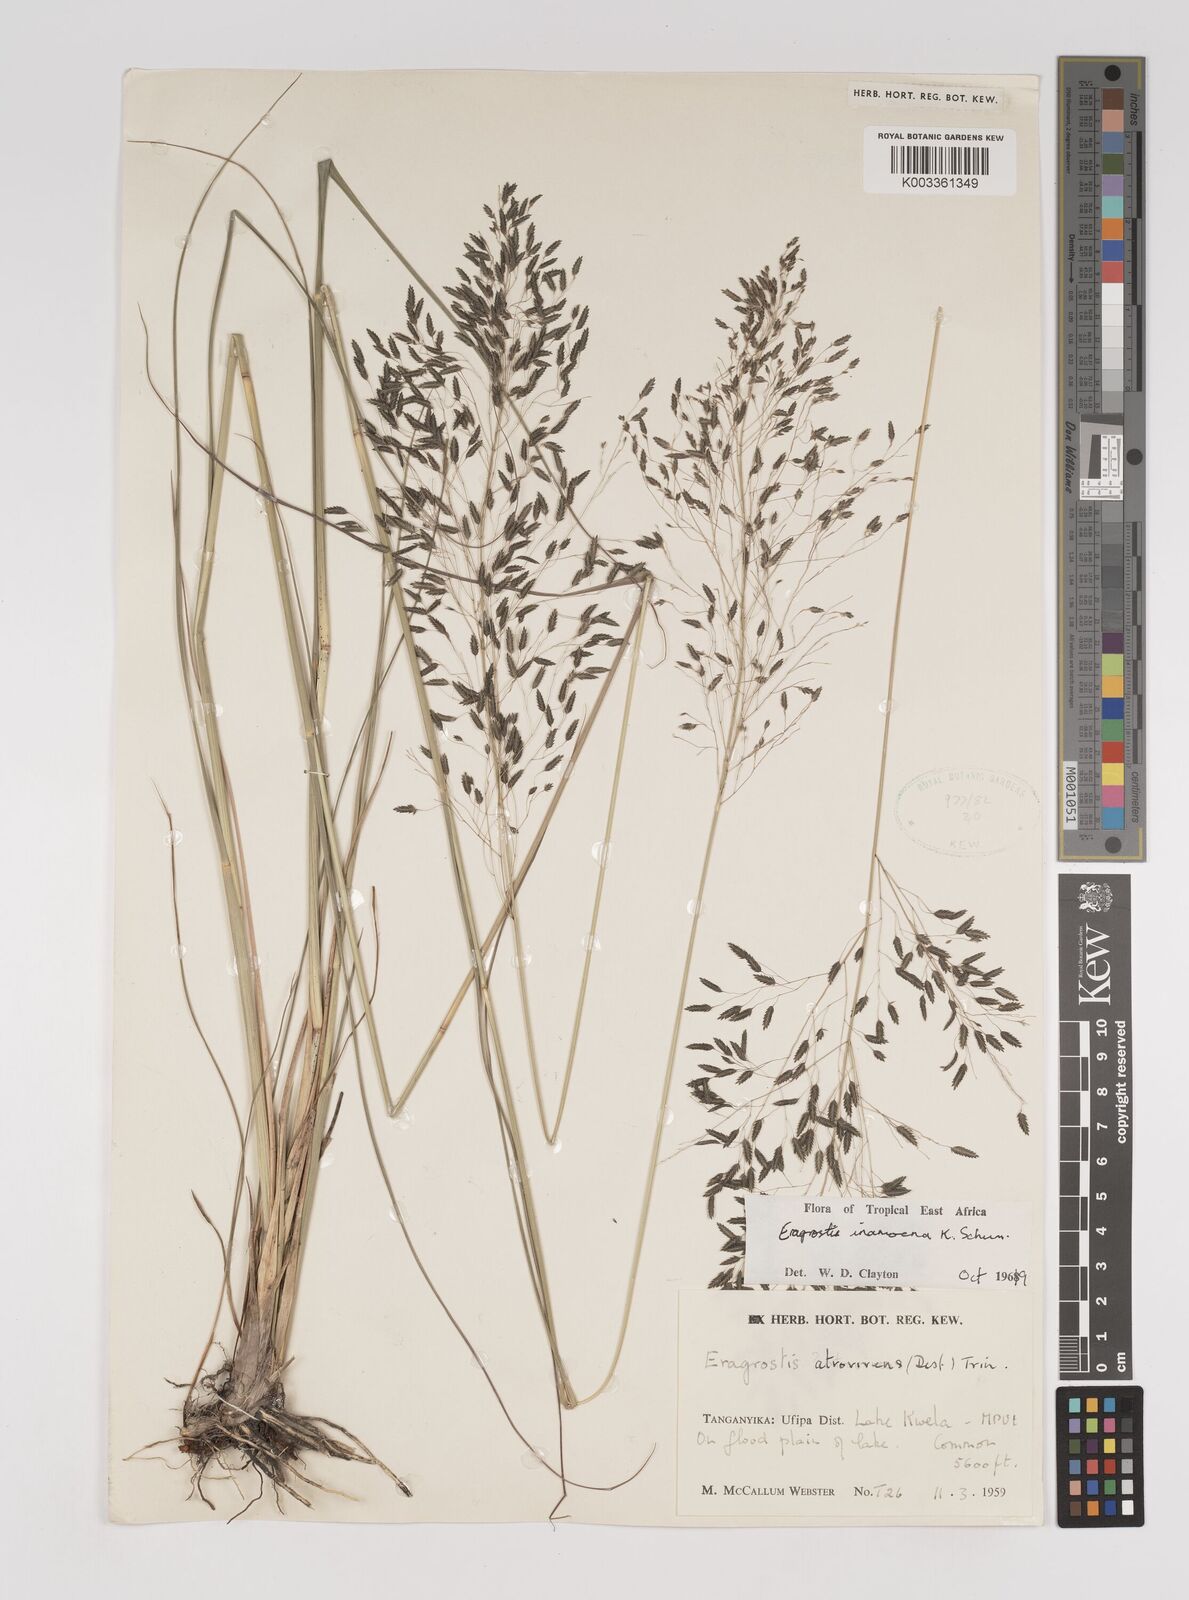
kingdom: Plantae
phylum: Tracheophyta
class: Liliopsida
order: Poales
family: Poaceae
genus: Eragrostis
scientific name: Eragrostis inamoena
